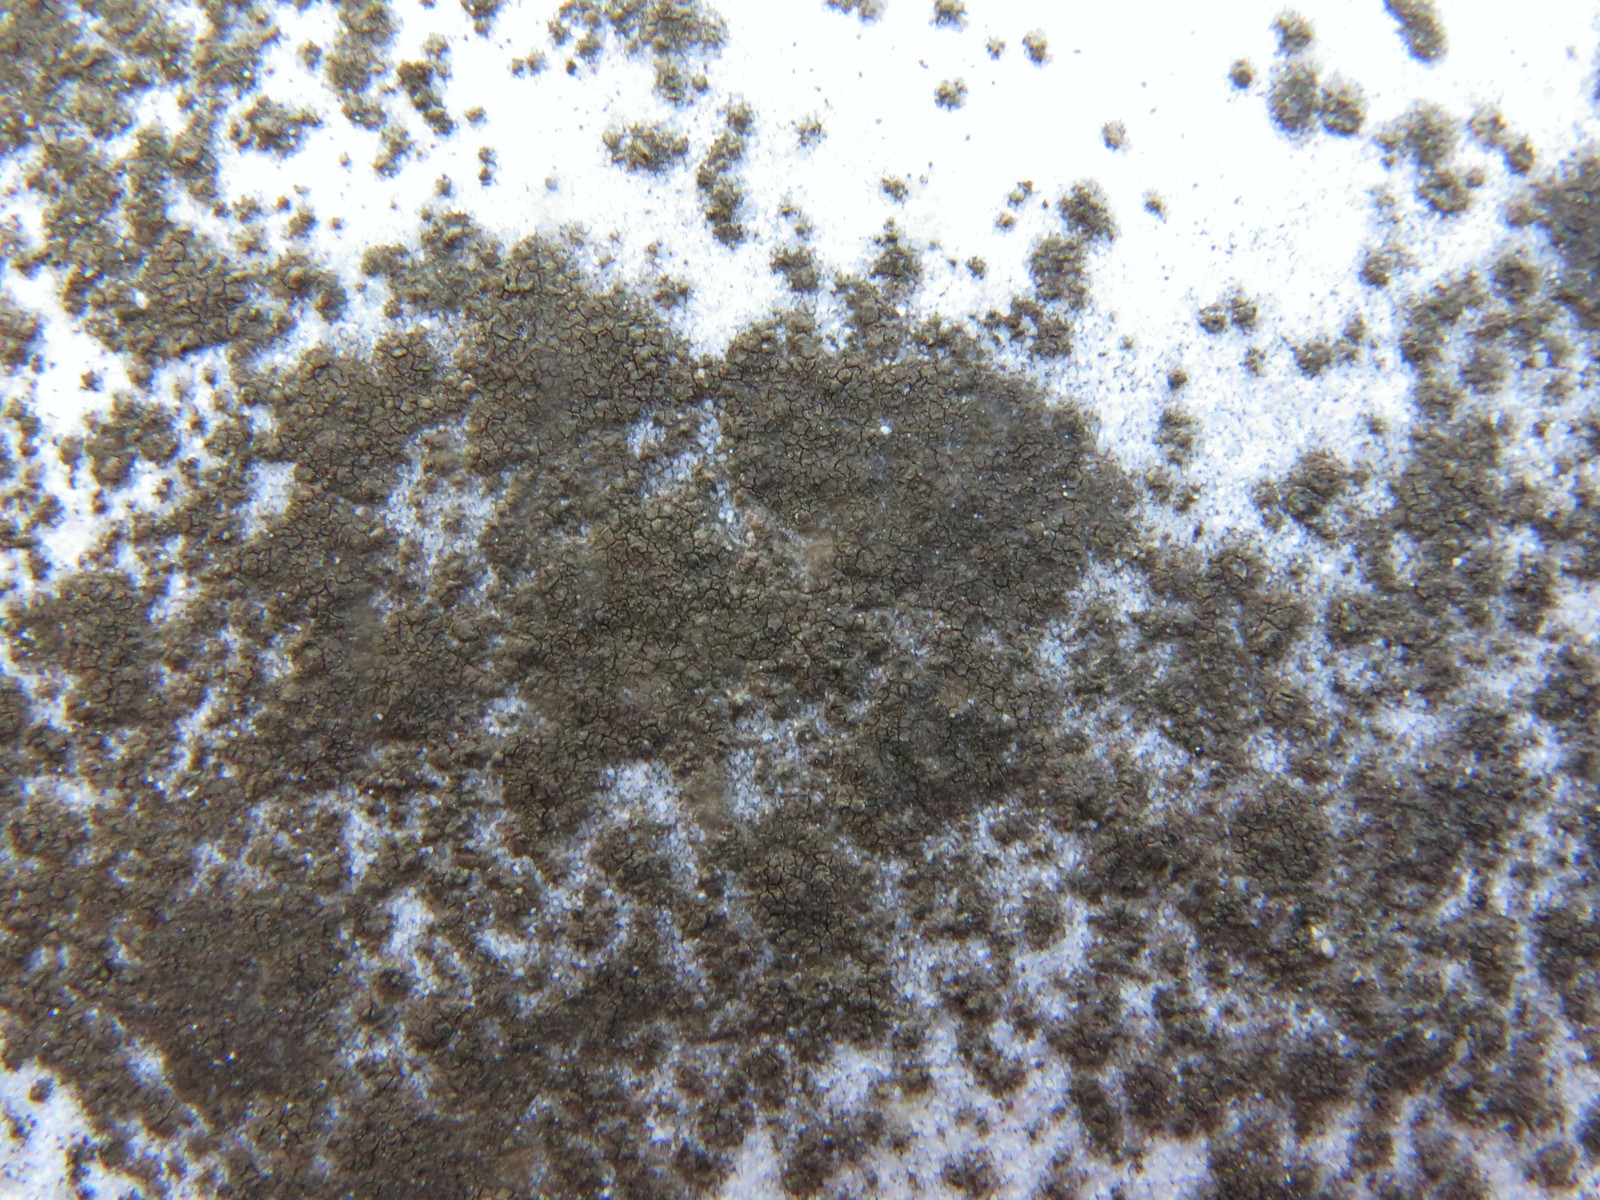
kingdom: Fungi
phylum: Ascomycota
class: Eurotiomycetes
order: Verrucariales
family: Verrucariaceae
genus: Verrucaria
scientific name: Verrucaria nigrescens
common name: sortbrun vortelav
